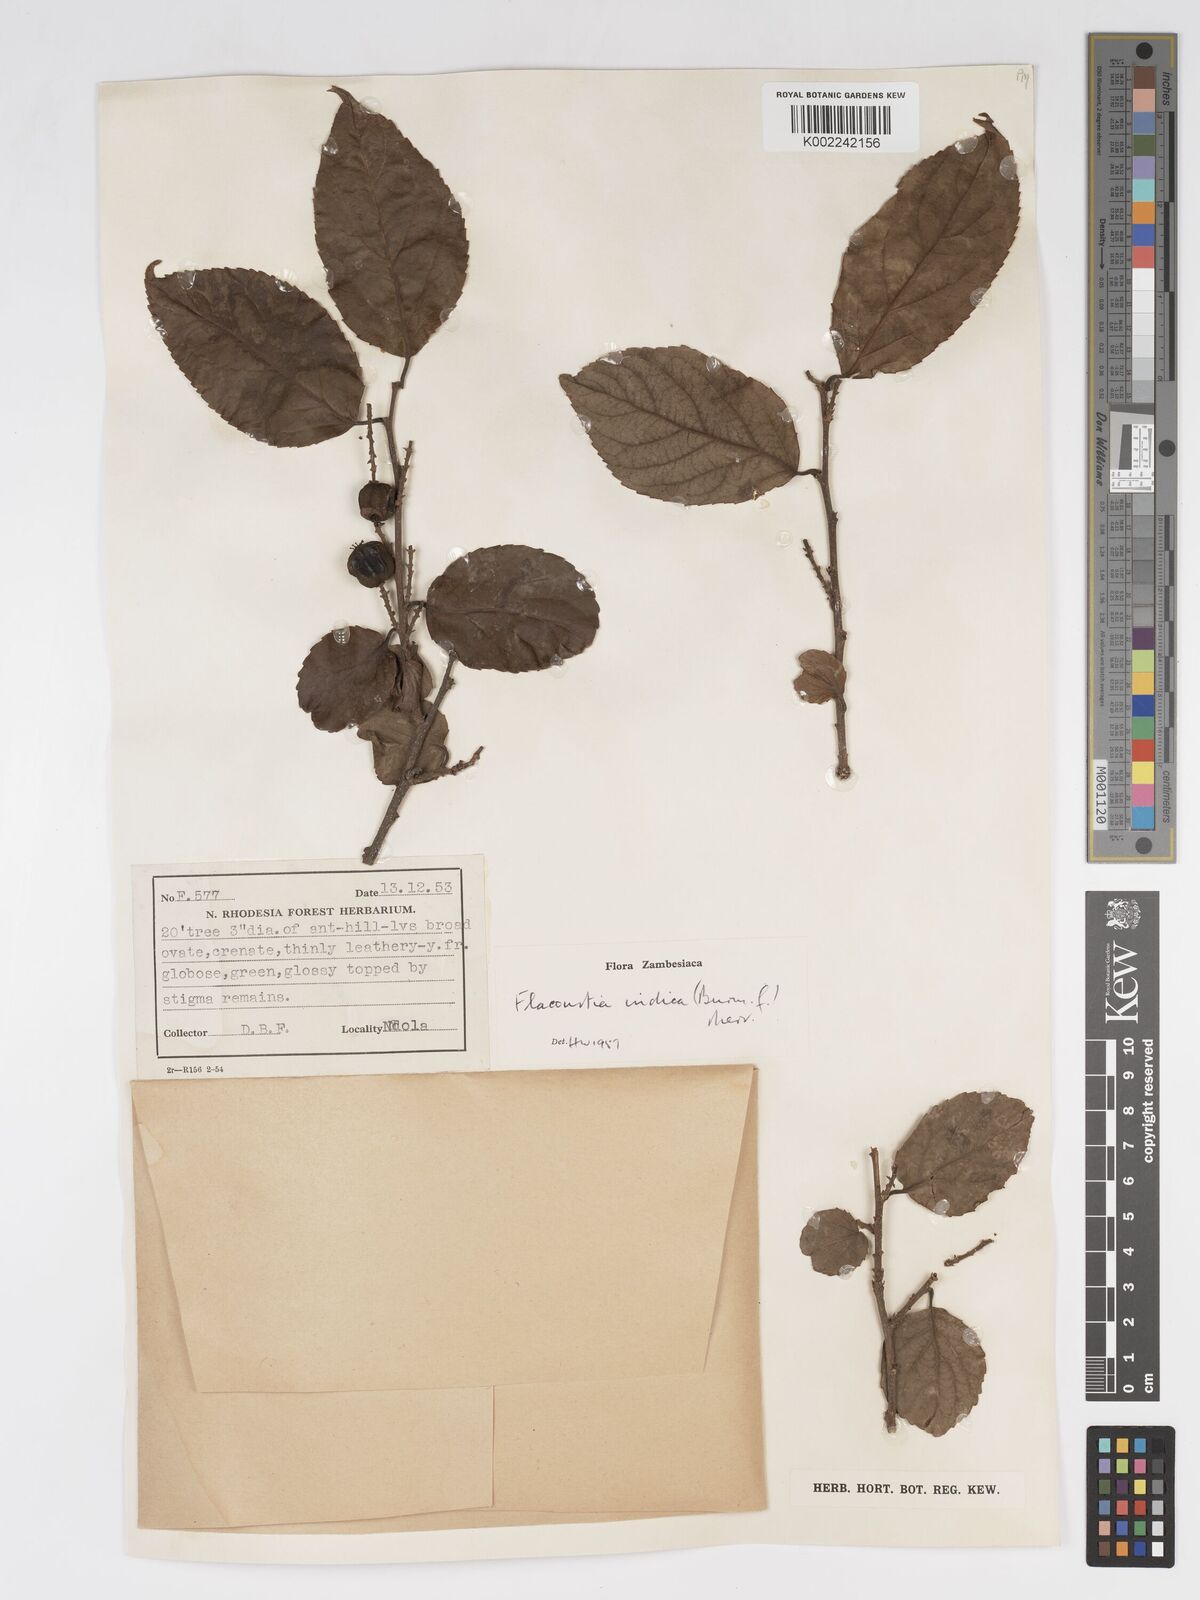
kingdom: Plantae
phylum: Tracheophyta
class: Magnoliopsida
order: Malpighiales
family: Salicaceae
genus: Flacourtia
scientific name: Flacourtia indica
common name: Governor's plum
